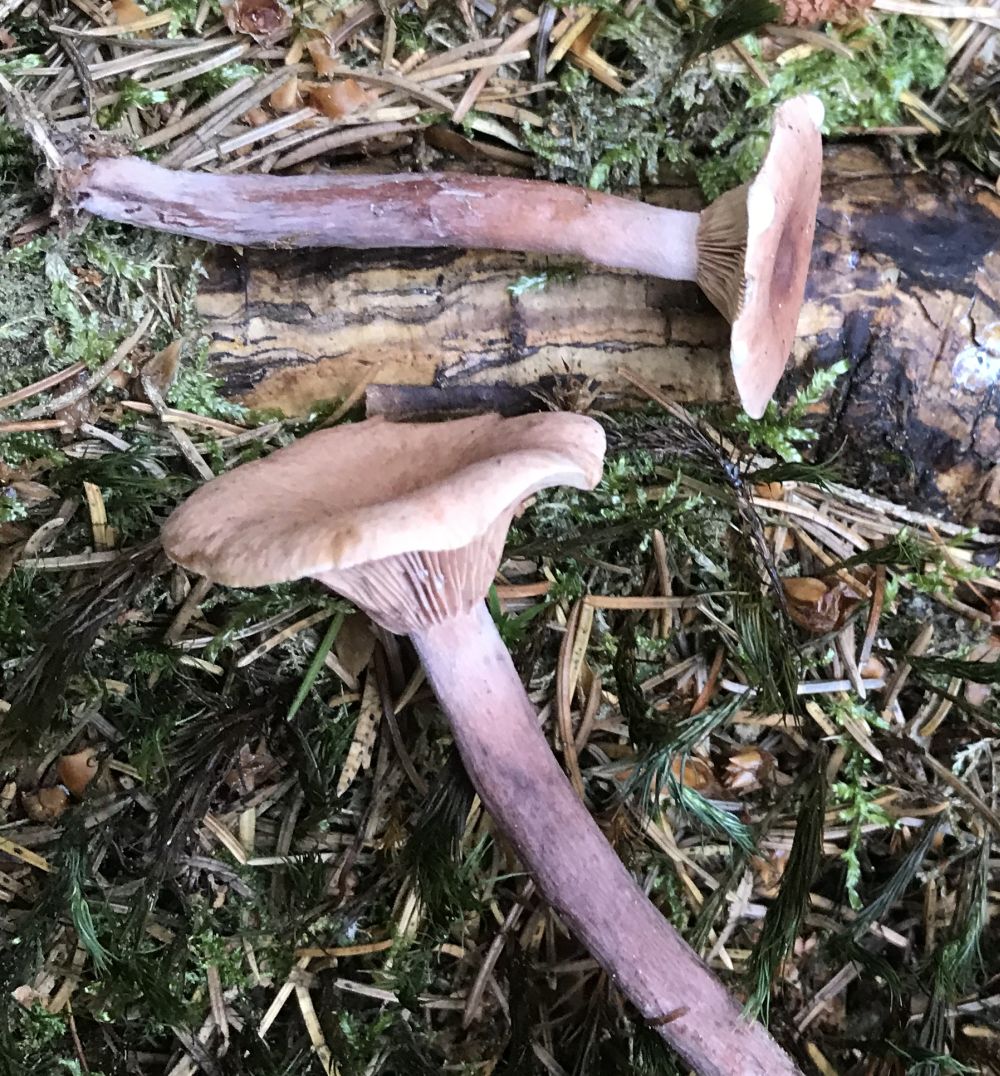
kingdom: Fungi
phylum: Basidiomycota
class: Agaricomycetes
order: Russulales
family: Russulaceae
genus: Lactarius
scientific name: Lactarius tabidus
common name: rynket mælkehat
